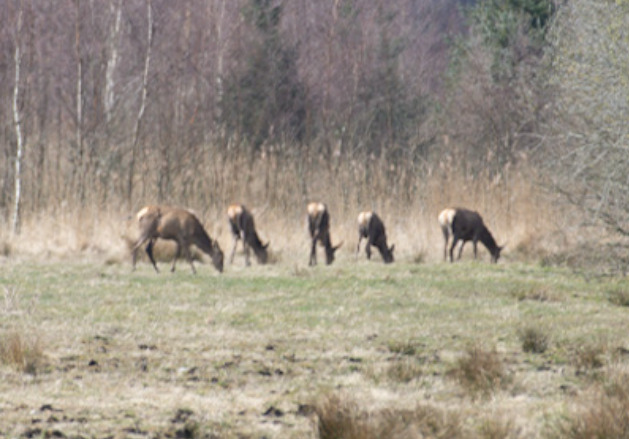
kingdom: Animalia
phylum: Chordata
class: Mammalia
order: Artiodactyla
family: Cervidae
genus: Cervus
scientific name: Cervus elaphus
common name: Krondyr
